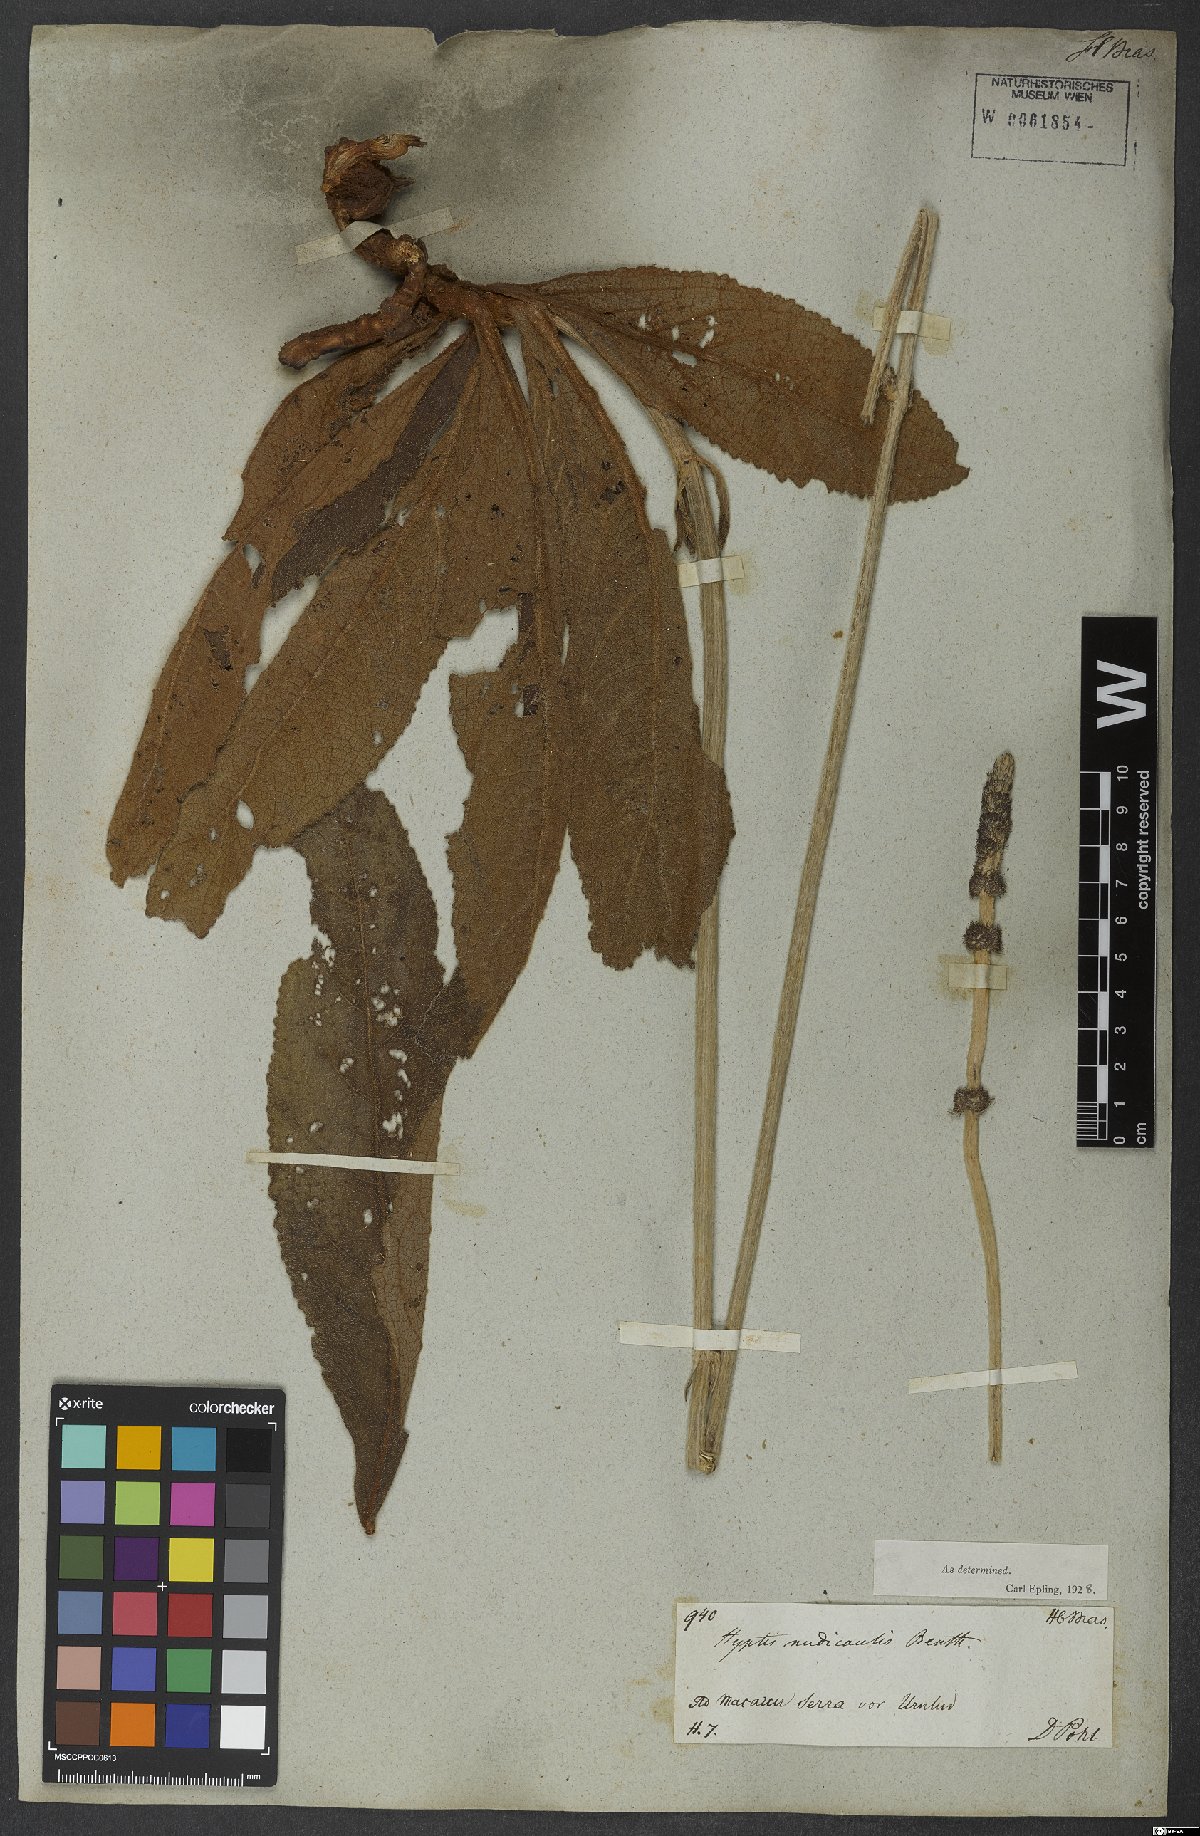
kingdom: Plantae
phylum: Tracheophyta
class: Magnoliopsida
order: Lamiales
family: Lamiaceae
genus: Hyptis
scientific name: Hyptis nudicaulis
